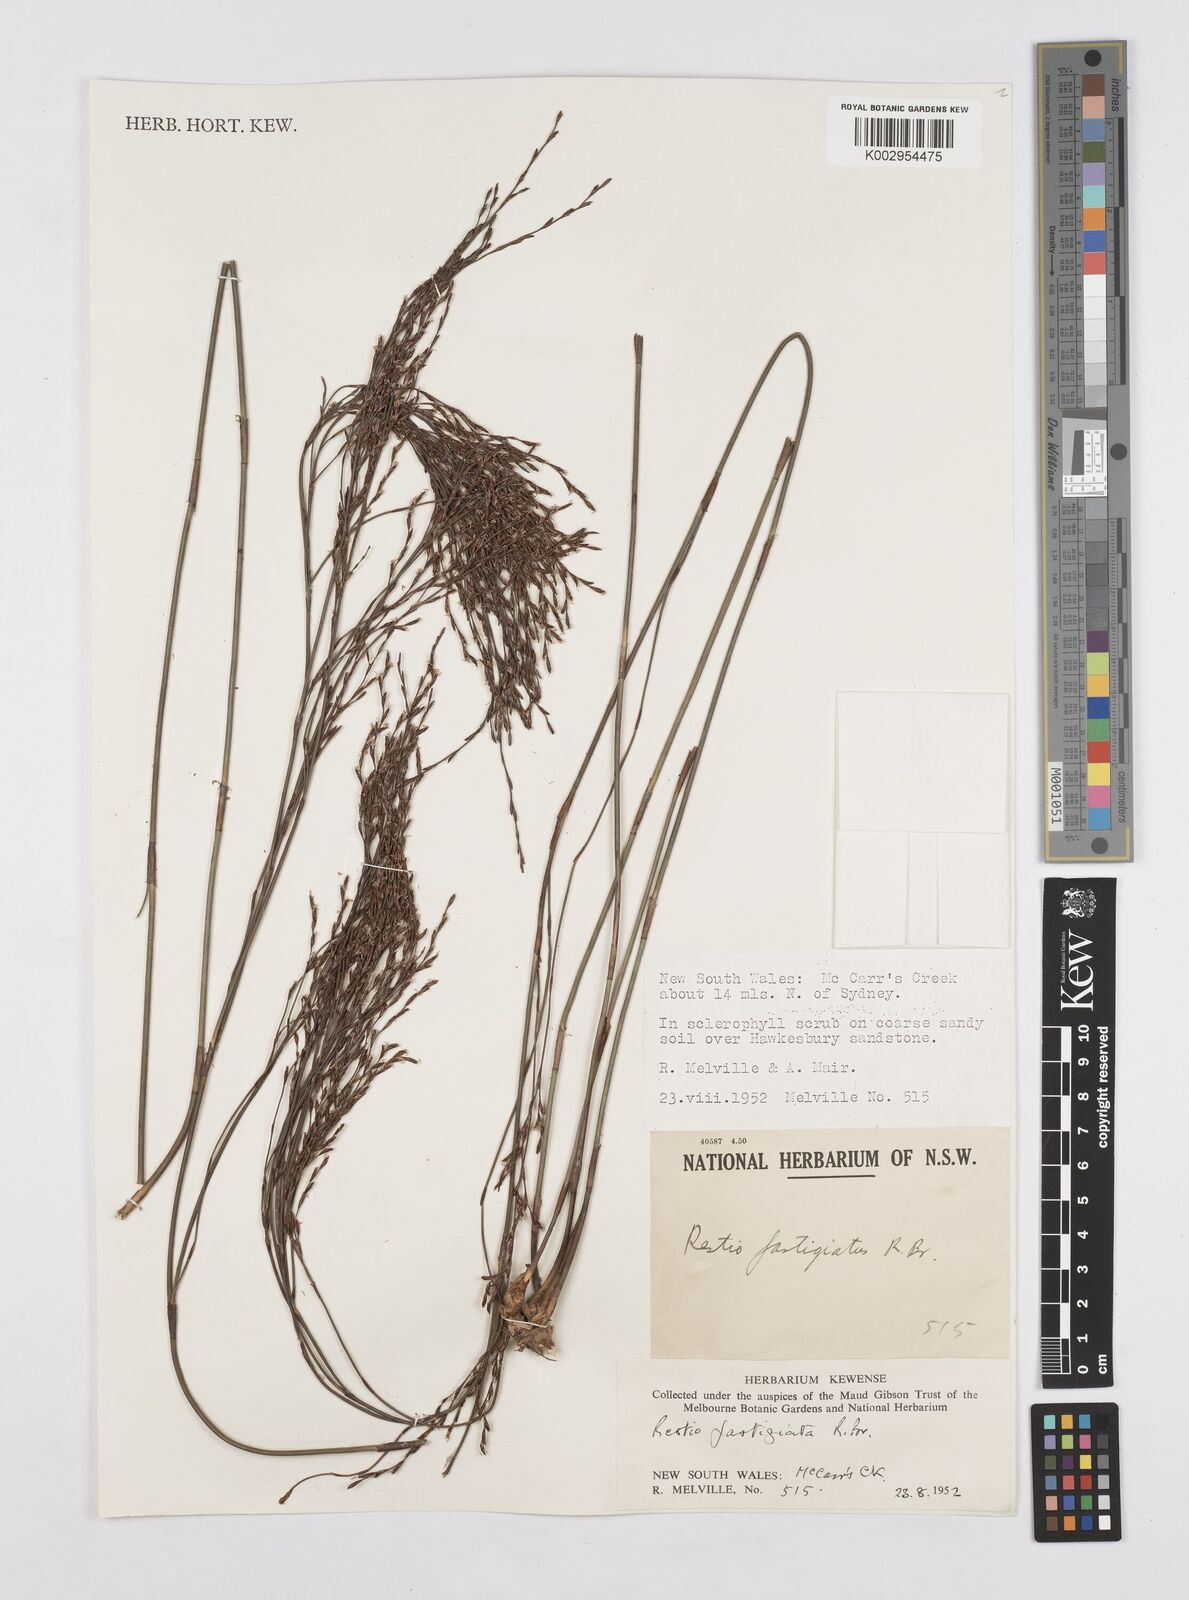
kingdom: Plantae
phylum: Tracheophyta
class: Liliopsida
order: Poales
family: Restionaceae
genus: Chordifex
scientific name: Chordifex fastigiatus
